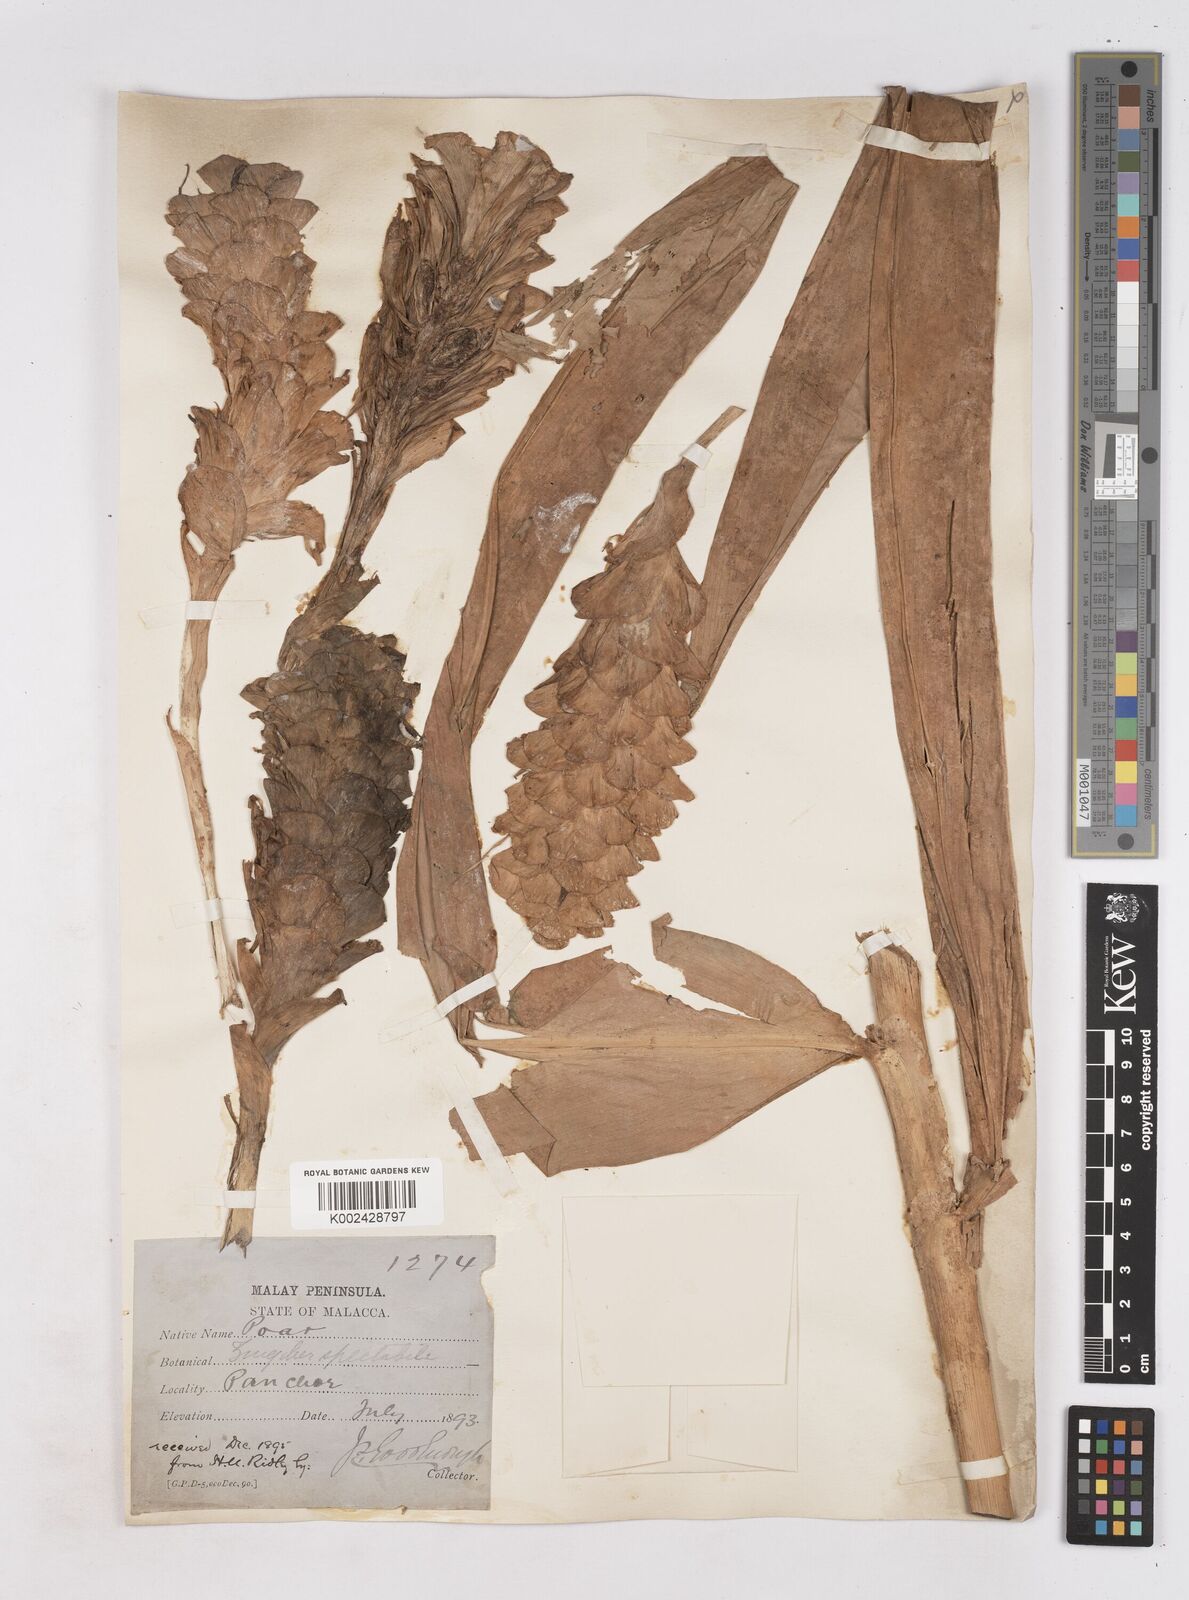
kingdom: Plantae
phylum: Tracheophyta
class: Liliopsida
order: Zingiberales
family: Zingiberaceae
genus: Zingiber
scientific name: Zingiber spectabile
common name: Beehive ginger
